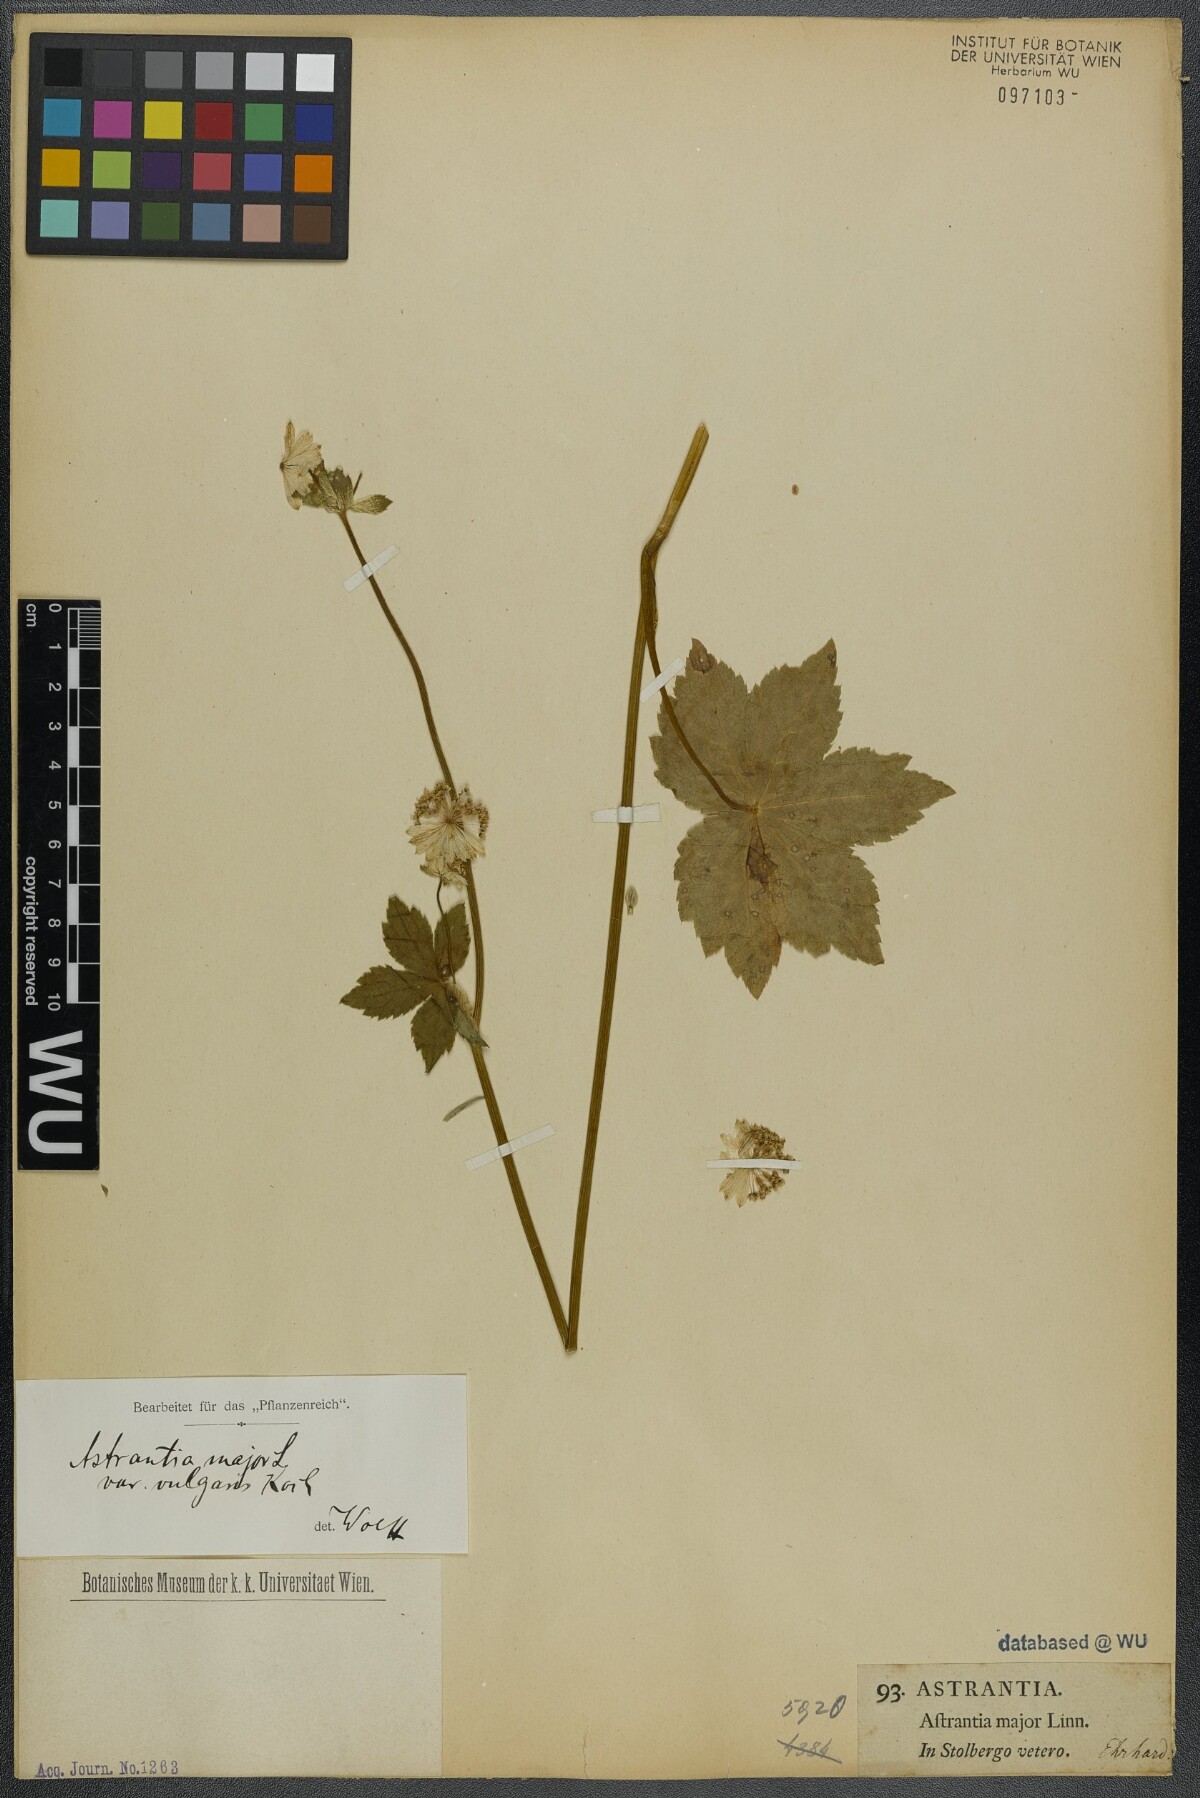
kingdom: Plantae
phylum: Tracheophyta
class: Magnoliopsida
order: Apiales
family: Apiaceae
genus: Astrantia
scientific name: Astrantia major
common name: Greater masterwort
